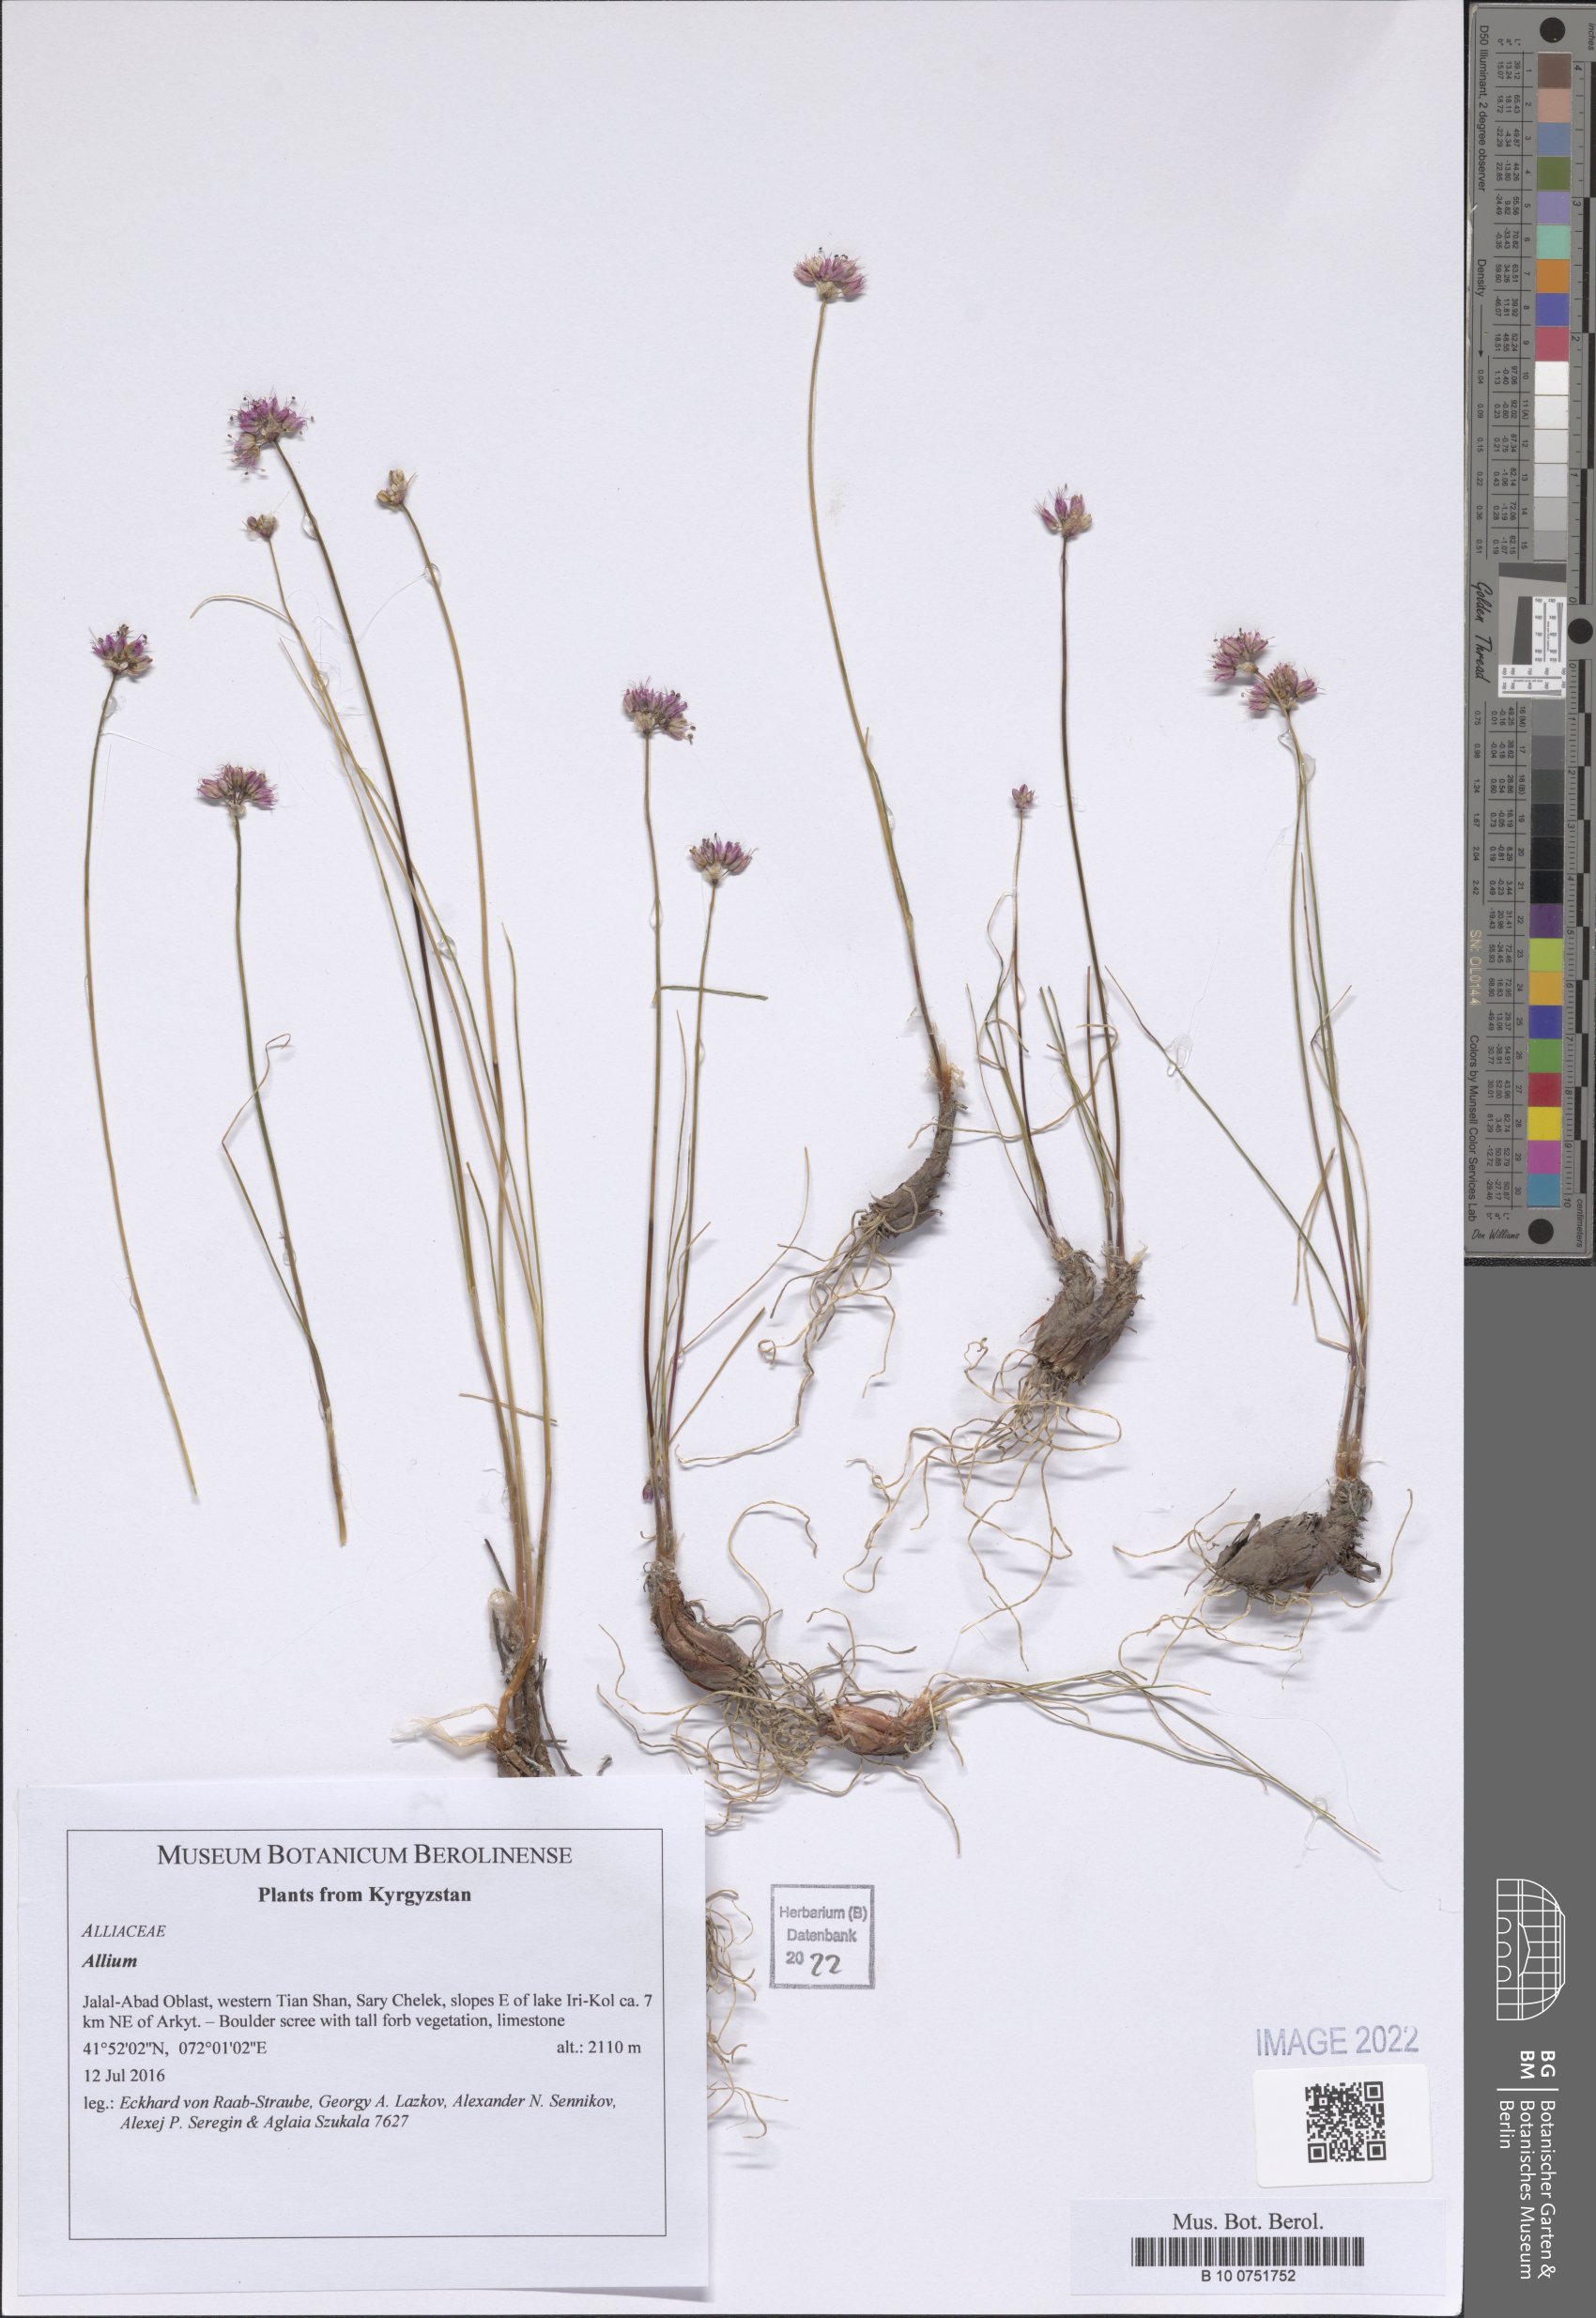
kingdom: Plantae
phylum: Tracheophyta
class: Liliopsida
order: Asparagales
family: Amaryllidaceae
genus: Allium
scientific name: Allium
